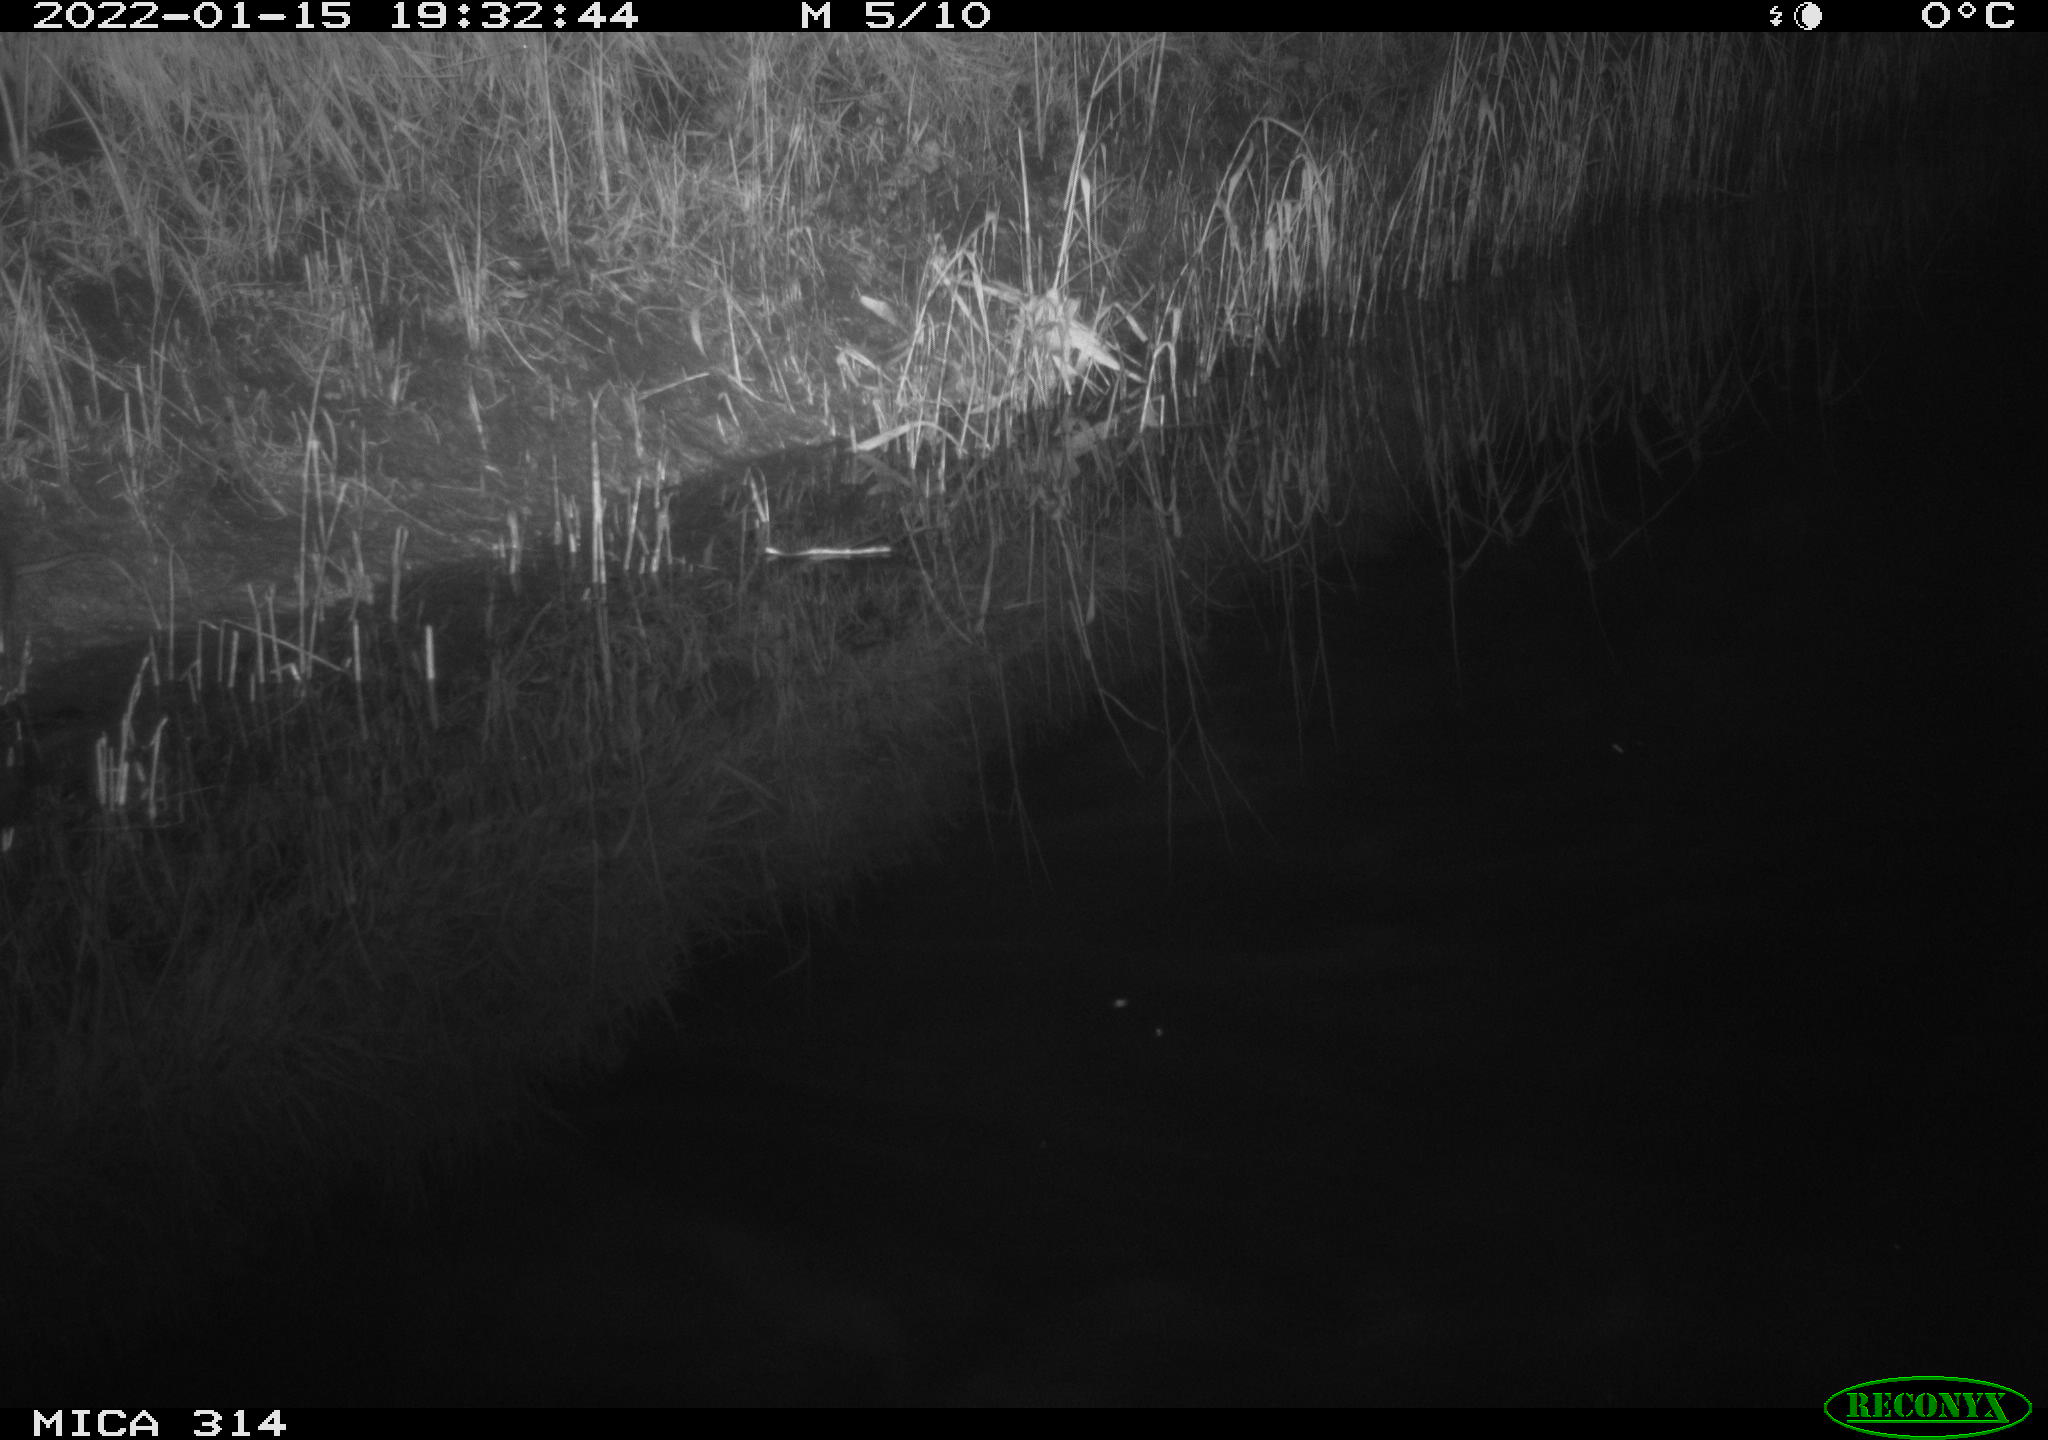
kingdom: Animalia
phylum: Chordata
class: Mammalia
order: Rodentia
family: Muridae
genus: Rattus
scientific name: Rattus norvegicus
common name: Brown rat
